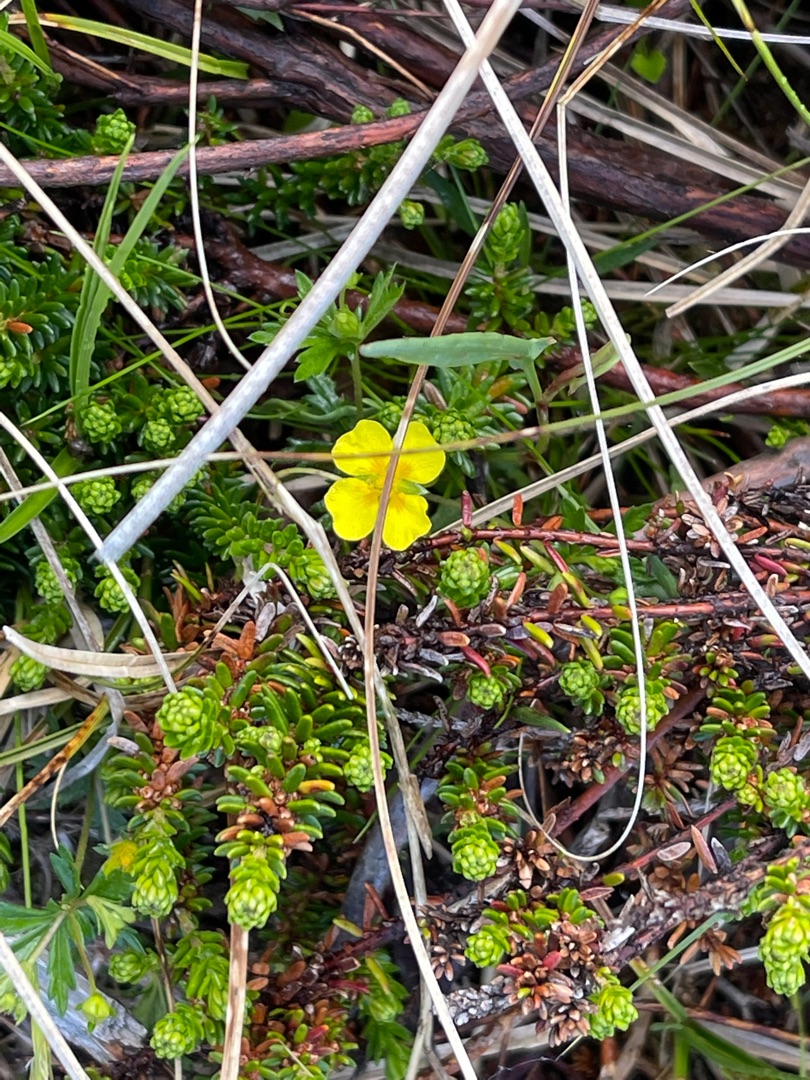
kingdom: Plantae
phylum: Tracheophyta
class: Magnoliopsida
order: Rosales
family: Rosaceae
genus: Potentilla
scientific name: Potentilla erecta
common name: Tormentil
